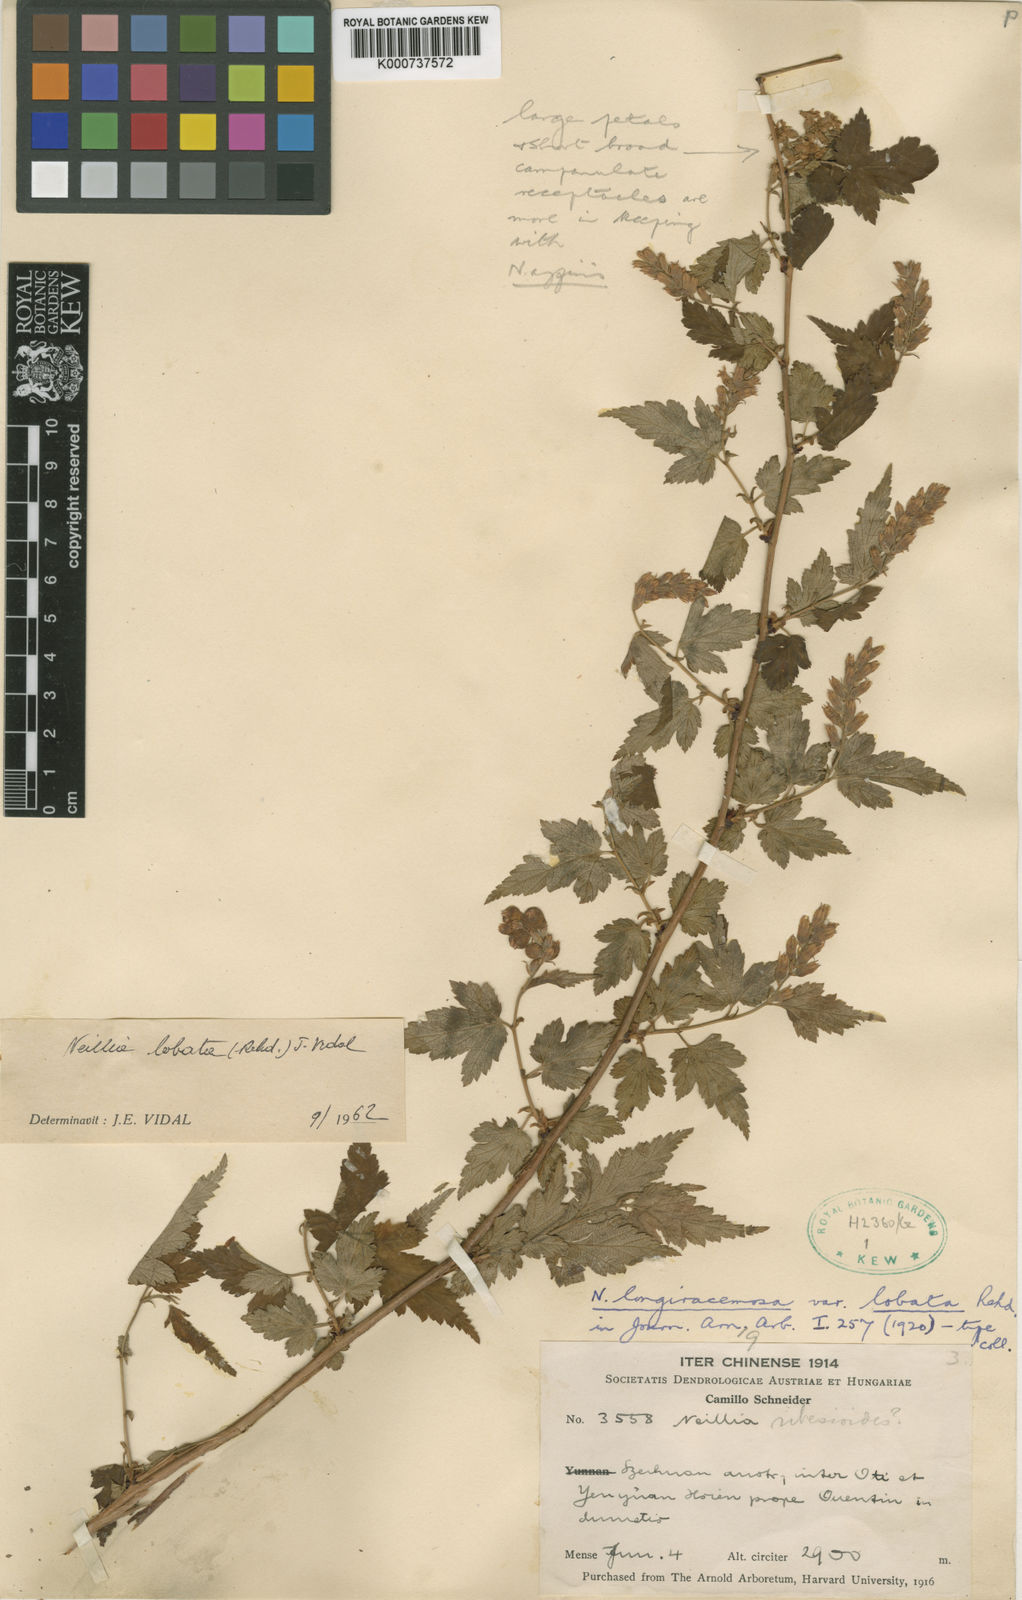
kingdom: Plantae
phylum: Tracheophyta
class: Magnoliopsida
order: Rosales
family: Rosaceae
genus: Neillia
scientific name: Neillia thibetica
